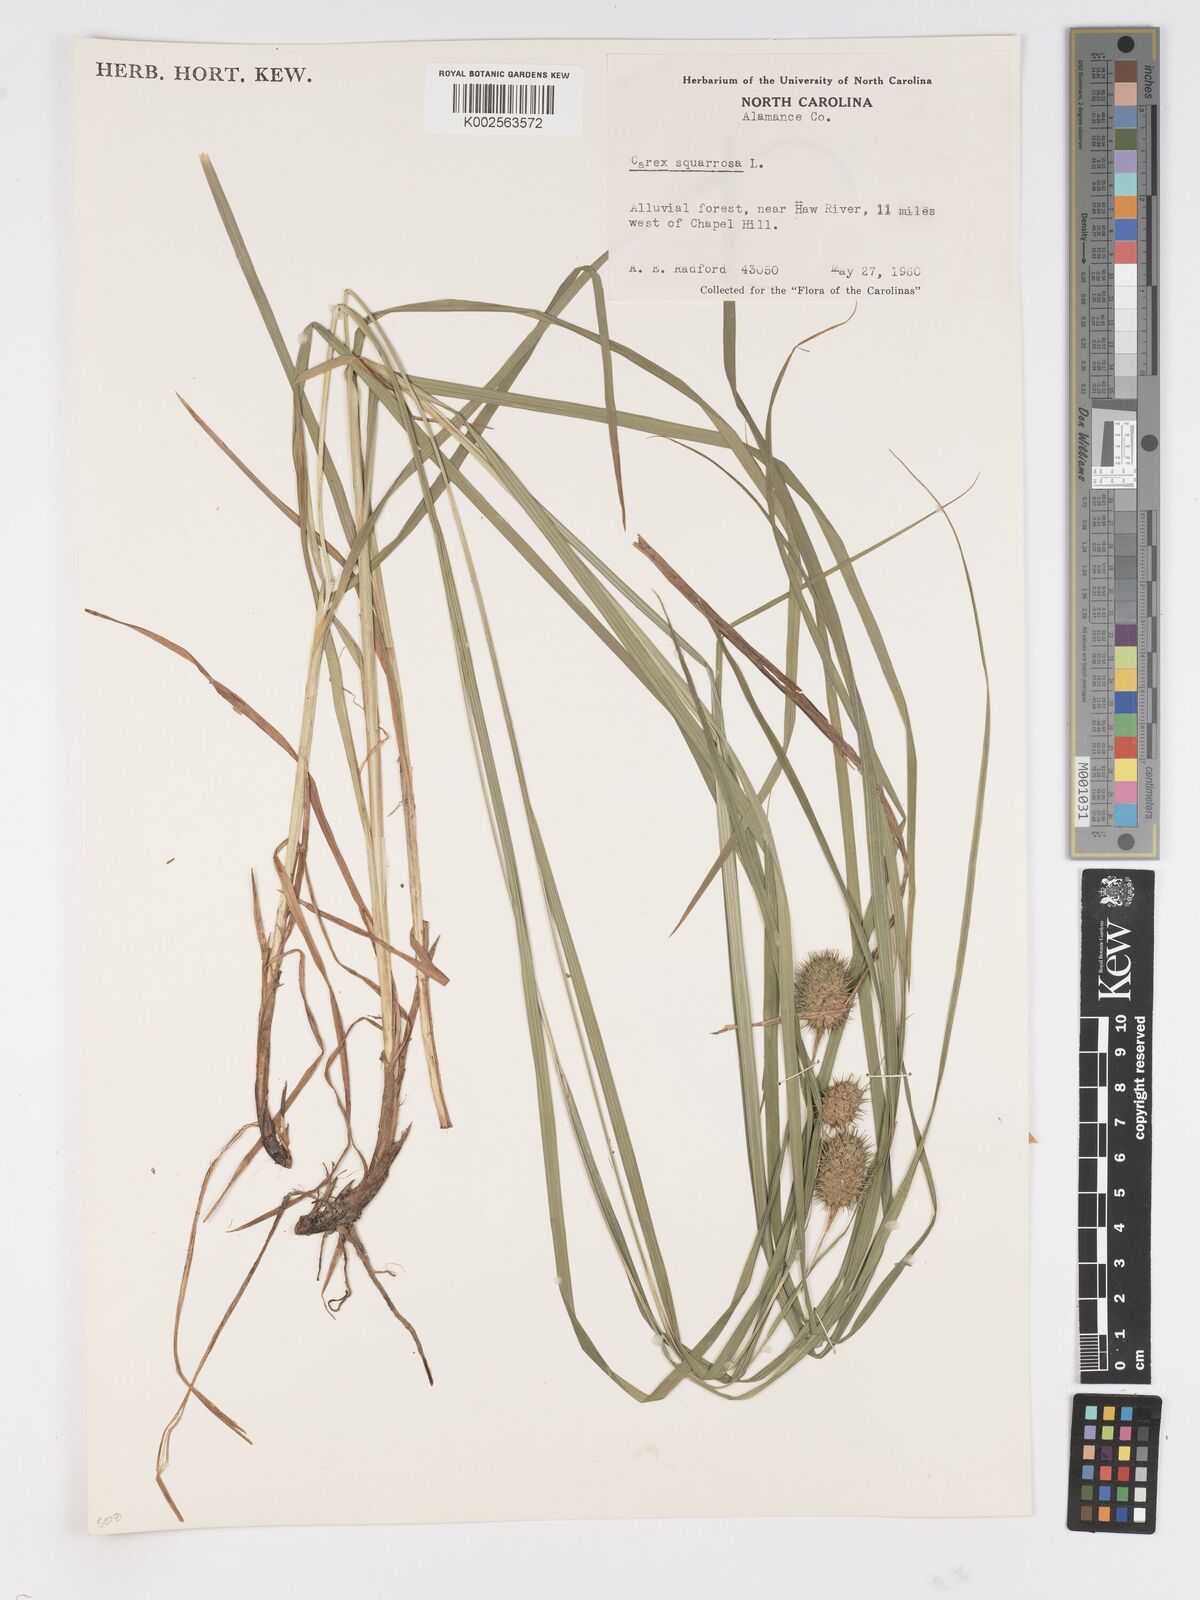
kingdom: Plantae
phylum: Tracheophyta
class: Liliopsida
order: Poales
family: Cyperaceae
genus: Carex
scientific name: Carex squarrosa
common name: Narrow-leaved cattail sedge
